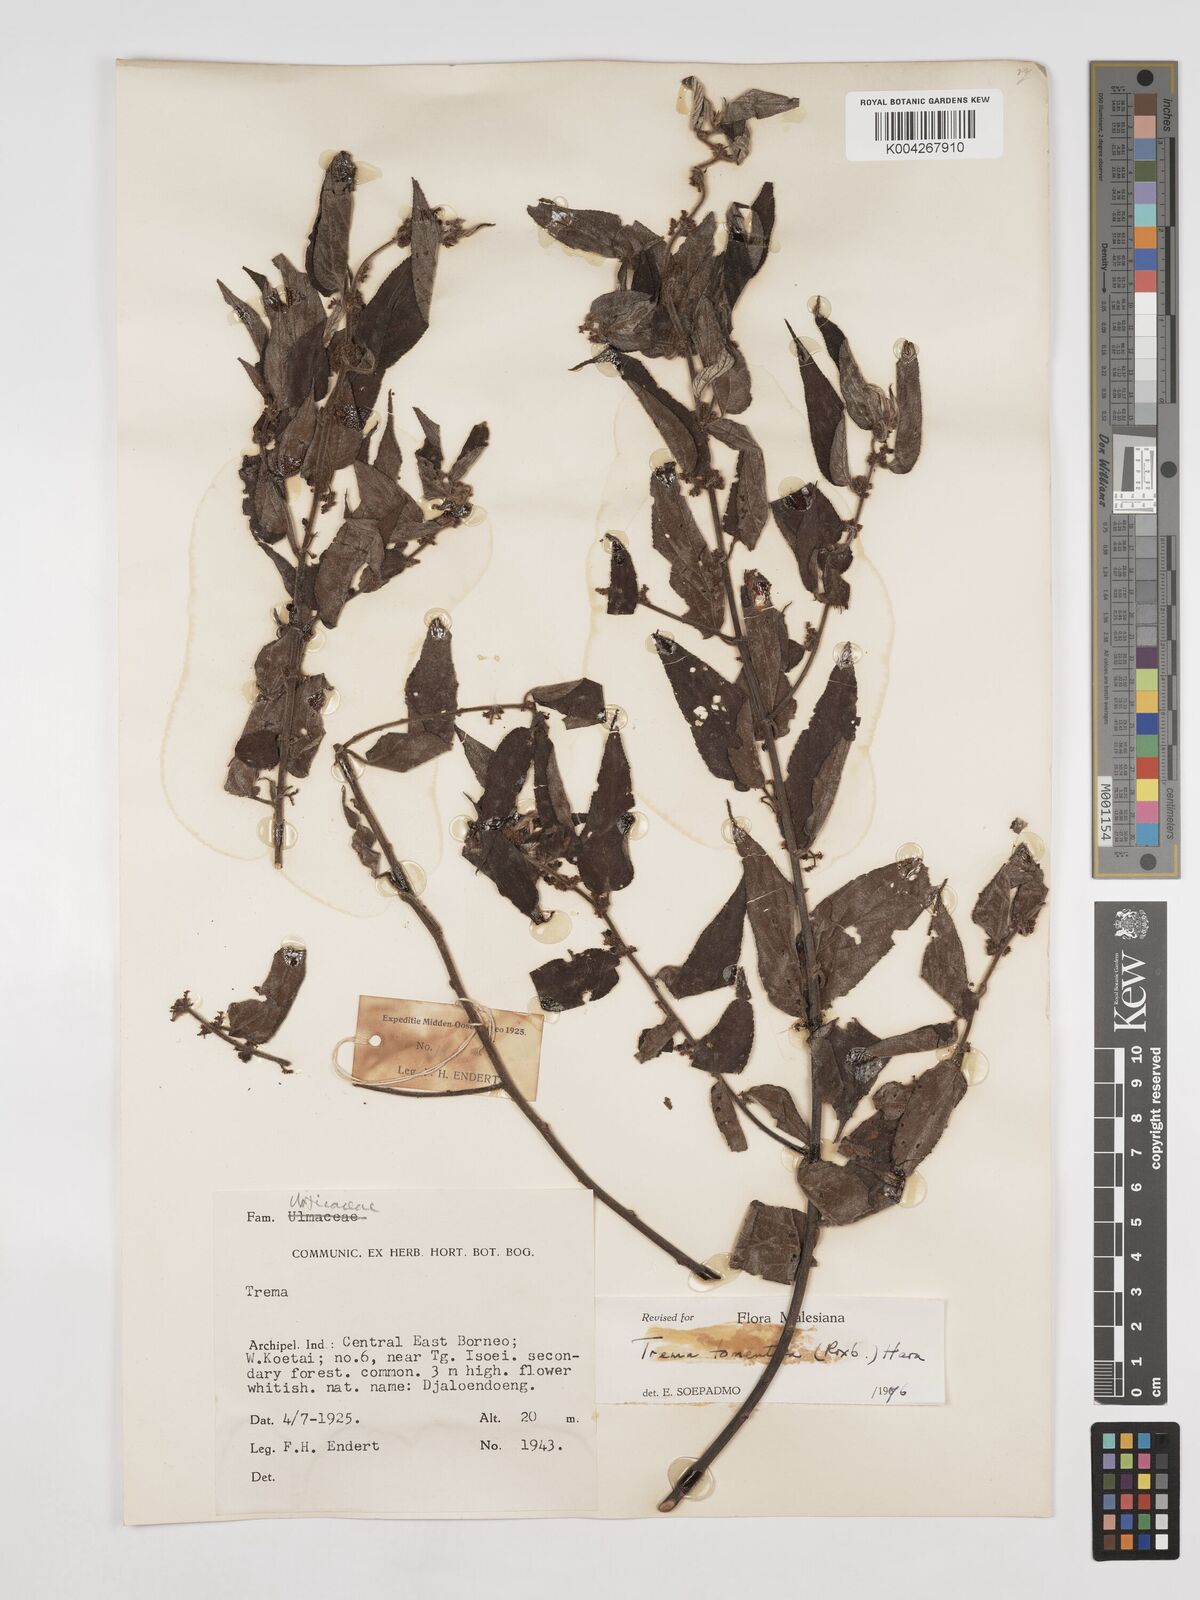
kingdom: Plantae
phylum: Tracheophyta
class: Magnoliopsida
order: Rosales
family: Cannabaceae
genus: Trema
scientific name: Trema tomentosum
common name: Peach-leaf-poisonbush
